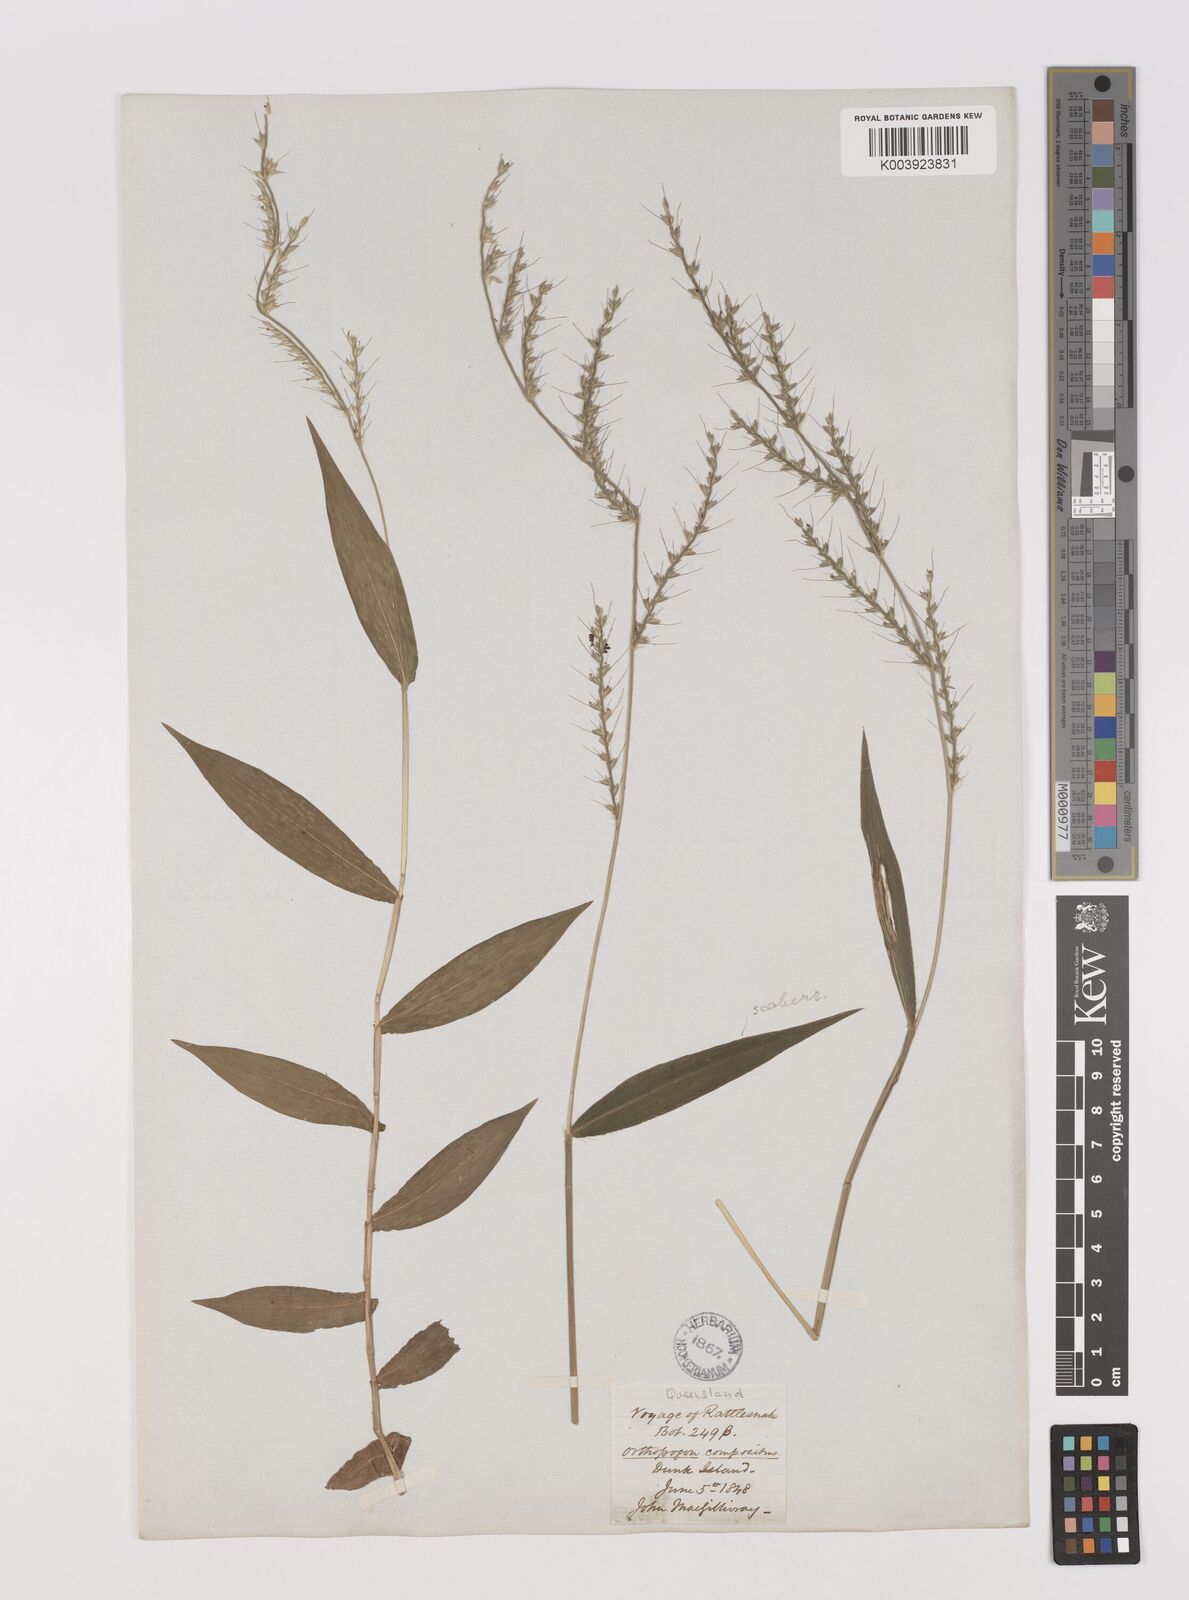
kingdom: Plantae
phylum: Tracheophyta
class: Liliopsida
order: Poales
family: Poaceae
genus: Oplismenus
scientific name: Oplismenus compositus
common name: Running mountain grass
